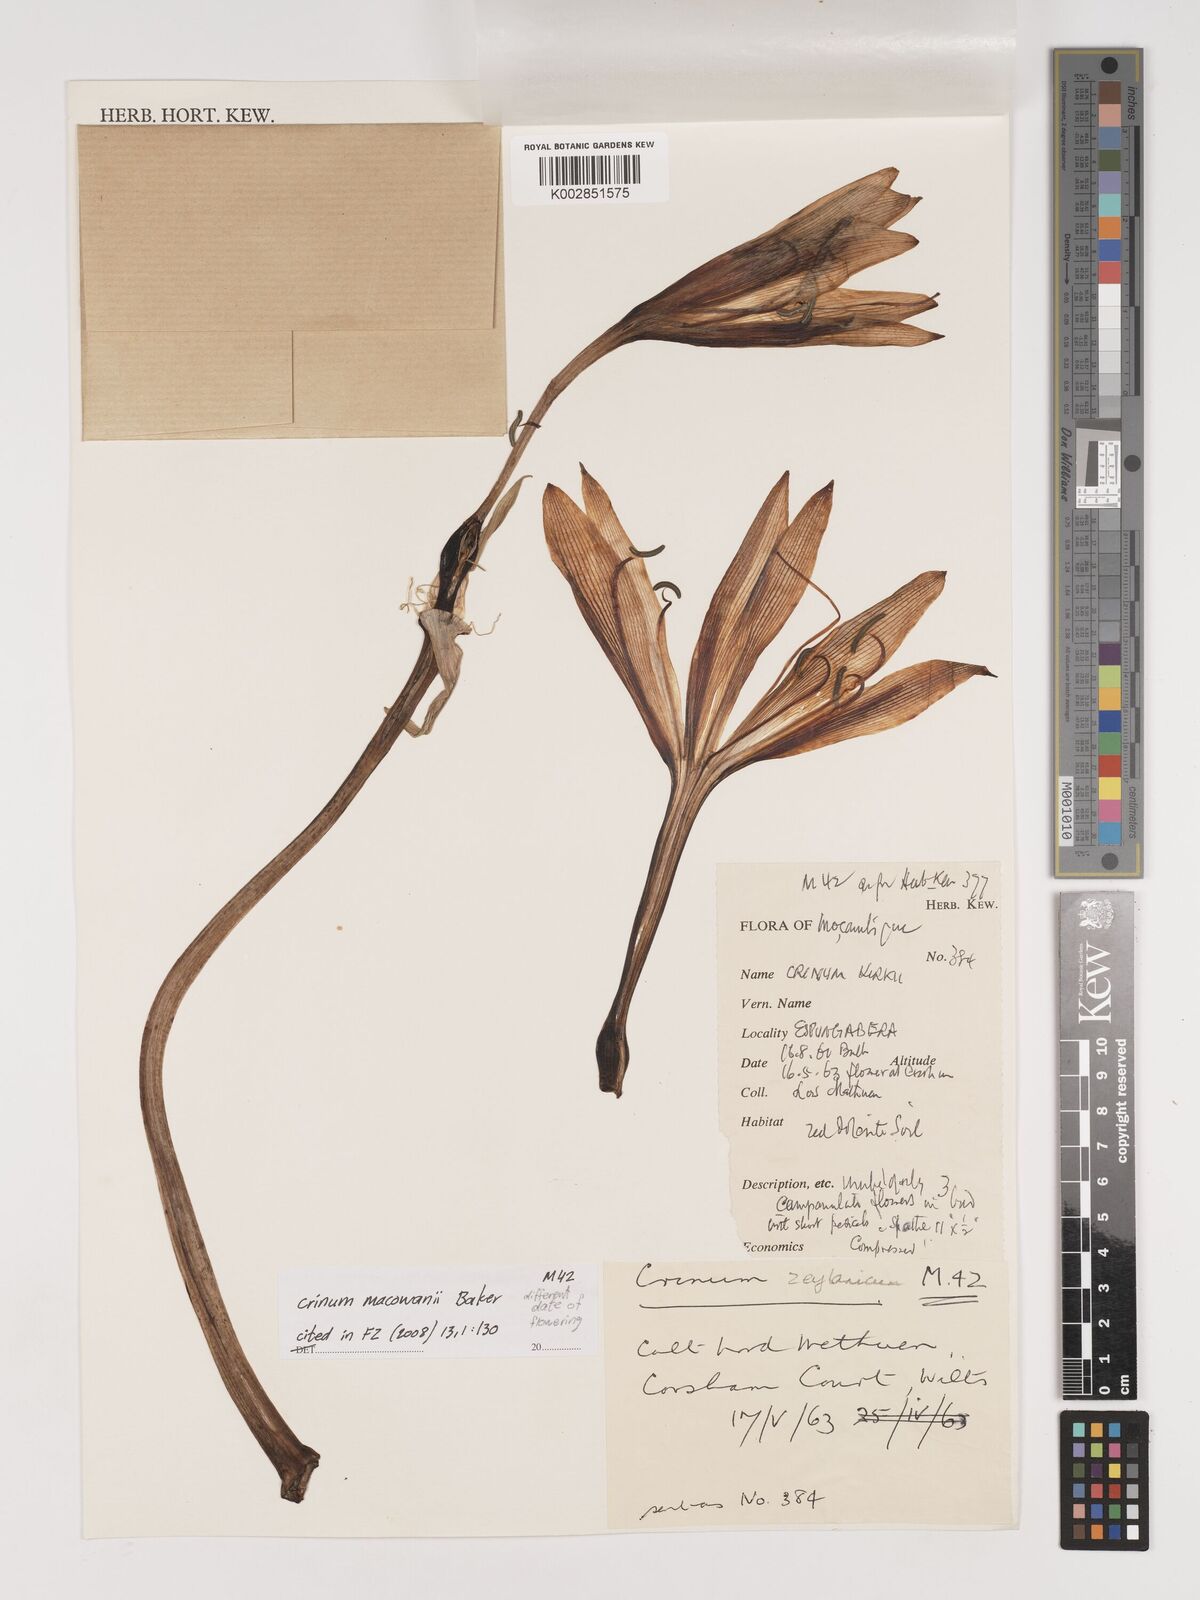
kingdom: Plantae
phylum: Tracheophyta
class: Liliopsida
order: Asparagales
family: Amaryllidaceae
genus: Crinum
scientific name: Crinum macowanii
